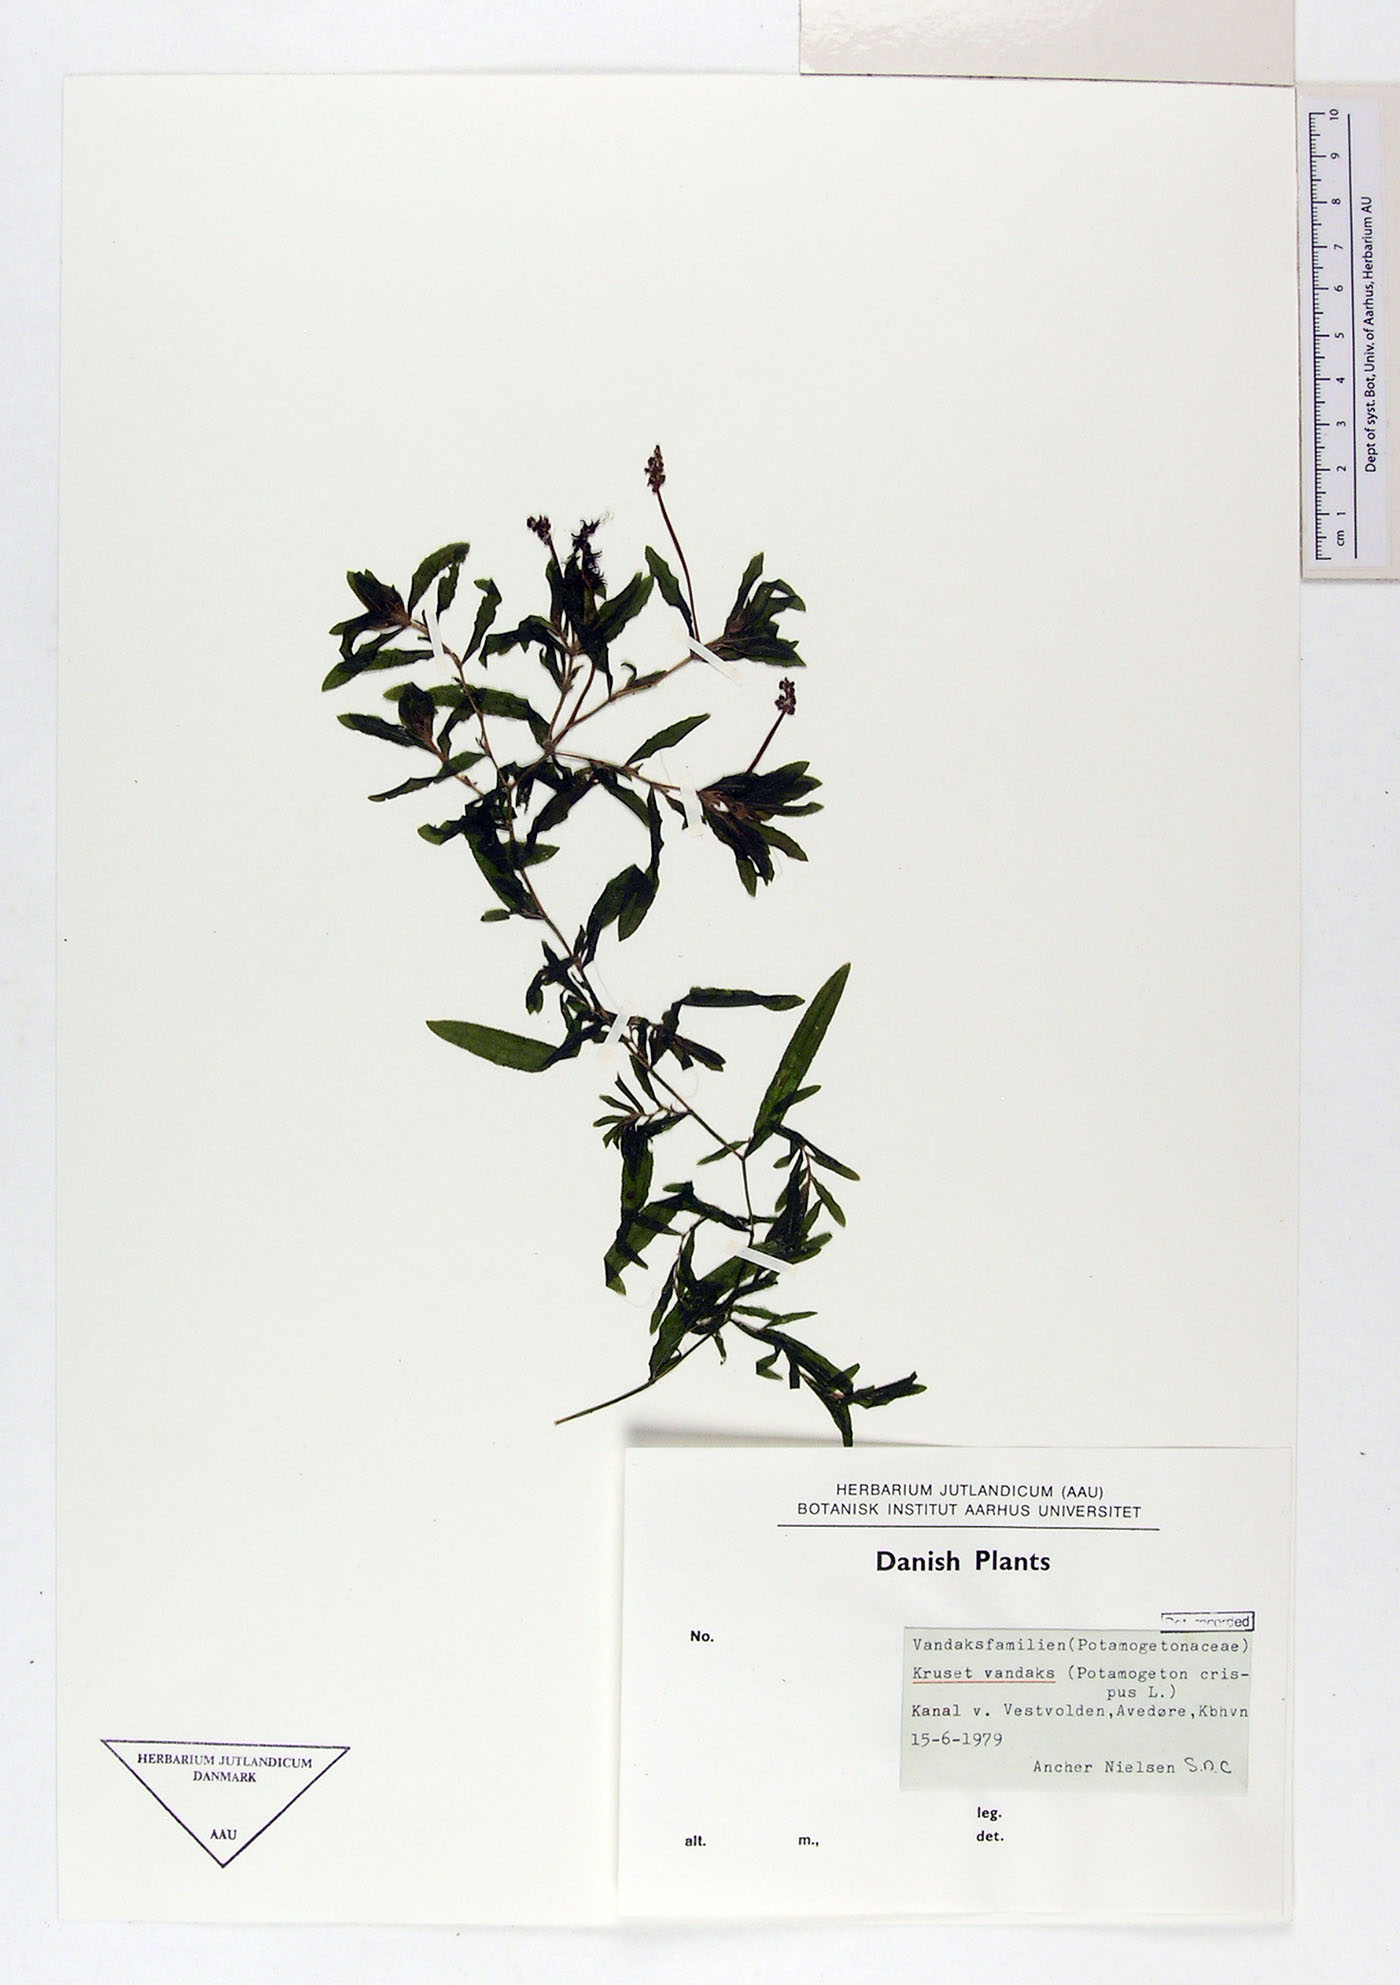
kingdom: Plantae
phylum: Tracheophyta
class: Liliopsida
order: Alismatales
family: Potamogetonaceae
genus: Potamogeton
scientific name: Potamogeton crispus
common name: Curled pondweed
